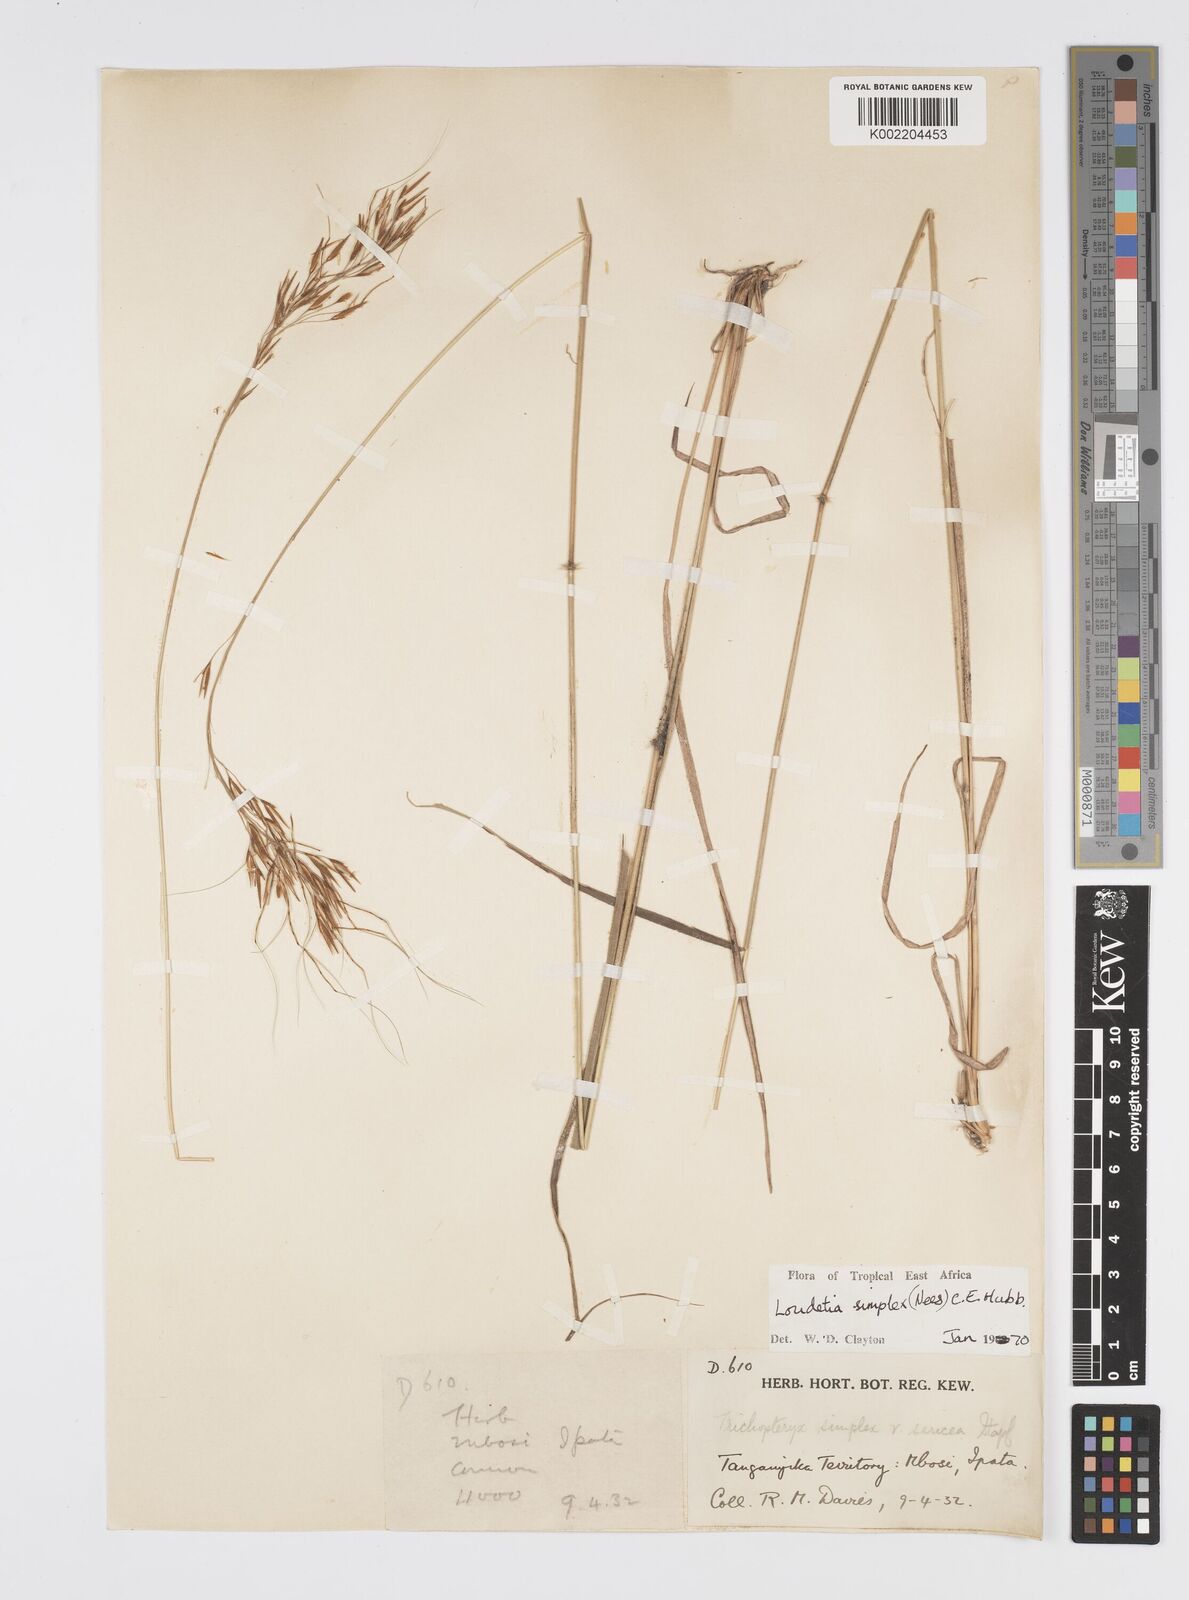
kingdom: Plantae
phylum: Tracheophyta
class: Liliopsida
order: Poales
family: Poaceae
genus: Loudetia
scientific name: Loudetia simplex
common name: Common russet grass
